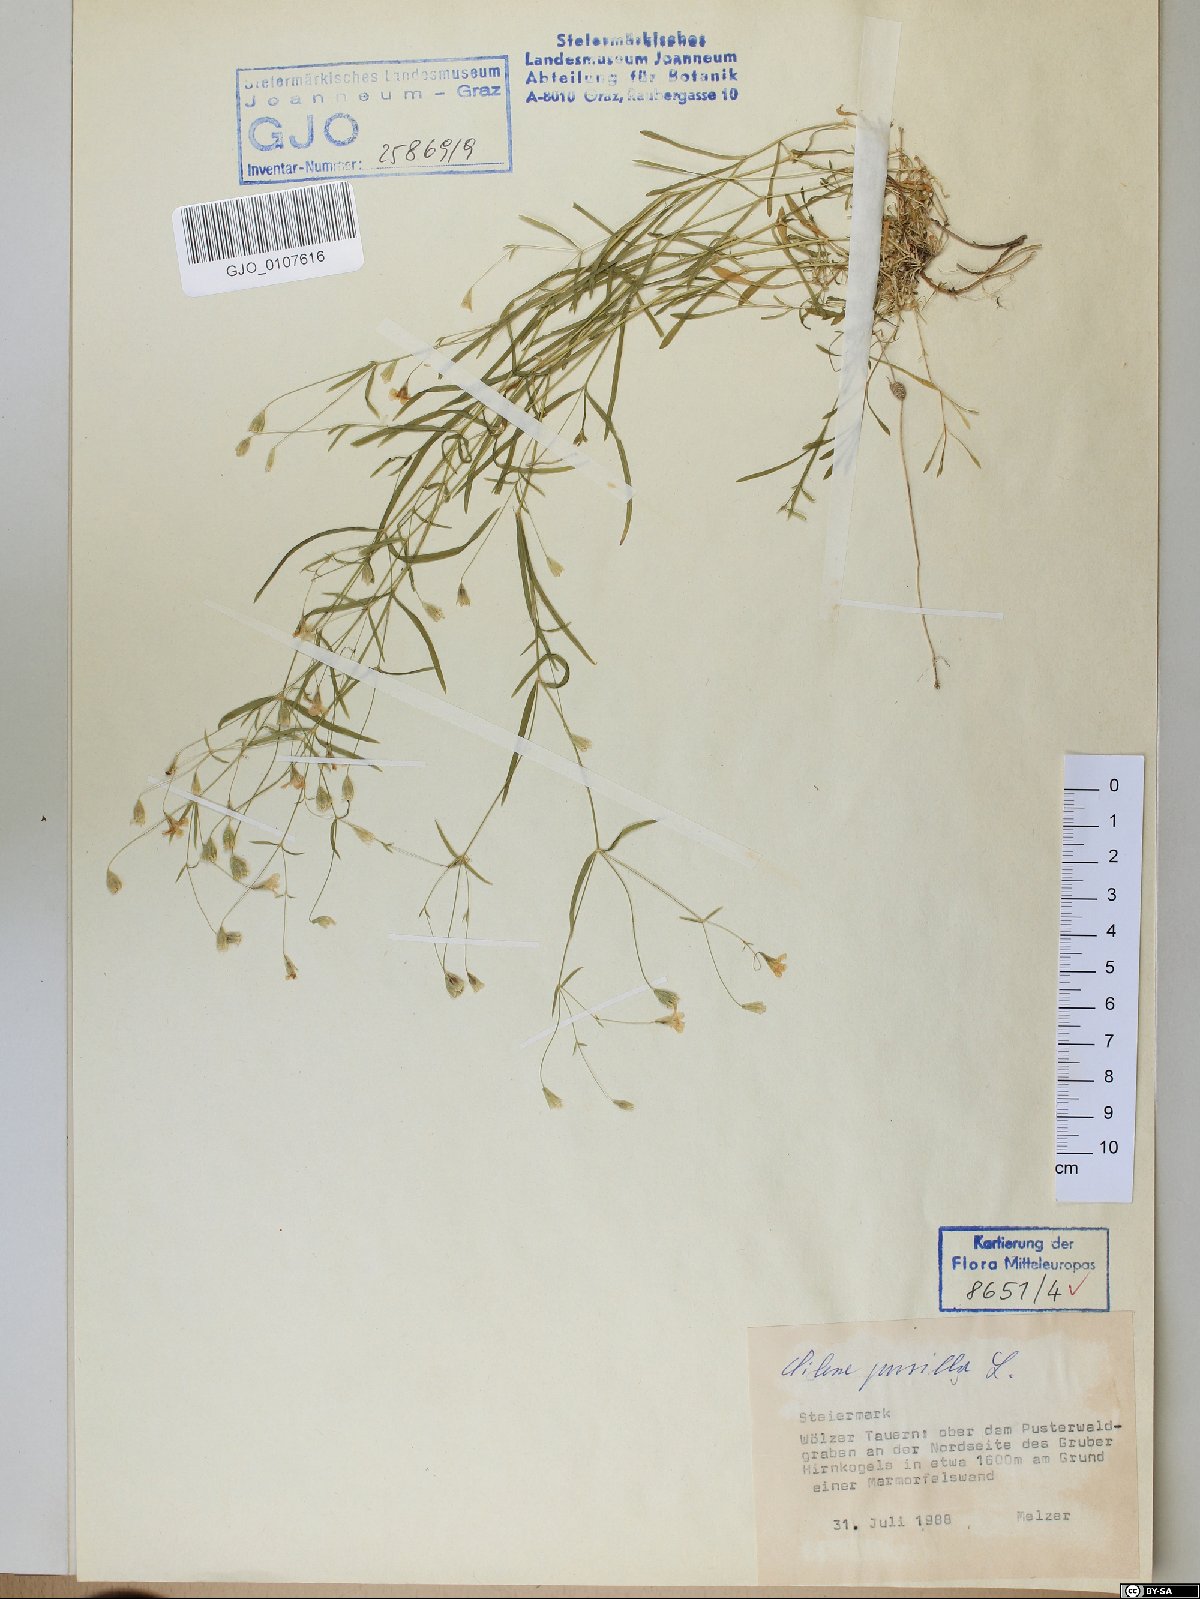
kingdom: Plantae
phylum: Tracheophyta
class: Magnoliopsida
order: Caryophyllales
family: Caryophyllaceae
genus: Heliosperma
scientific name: Heliosperma pusillum
